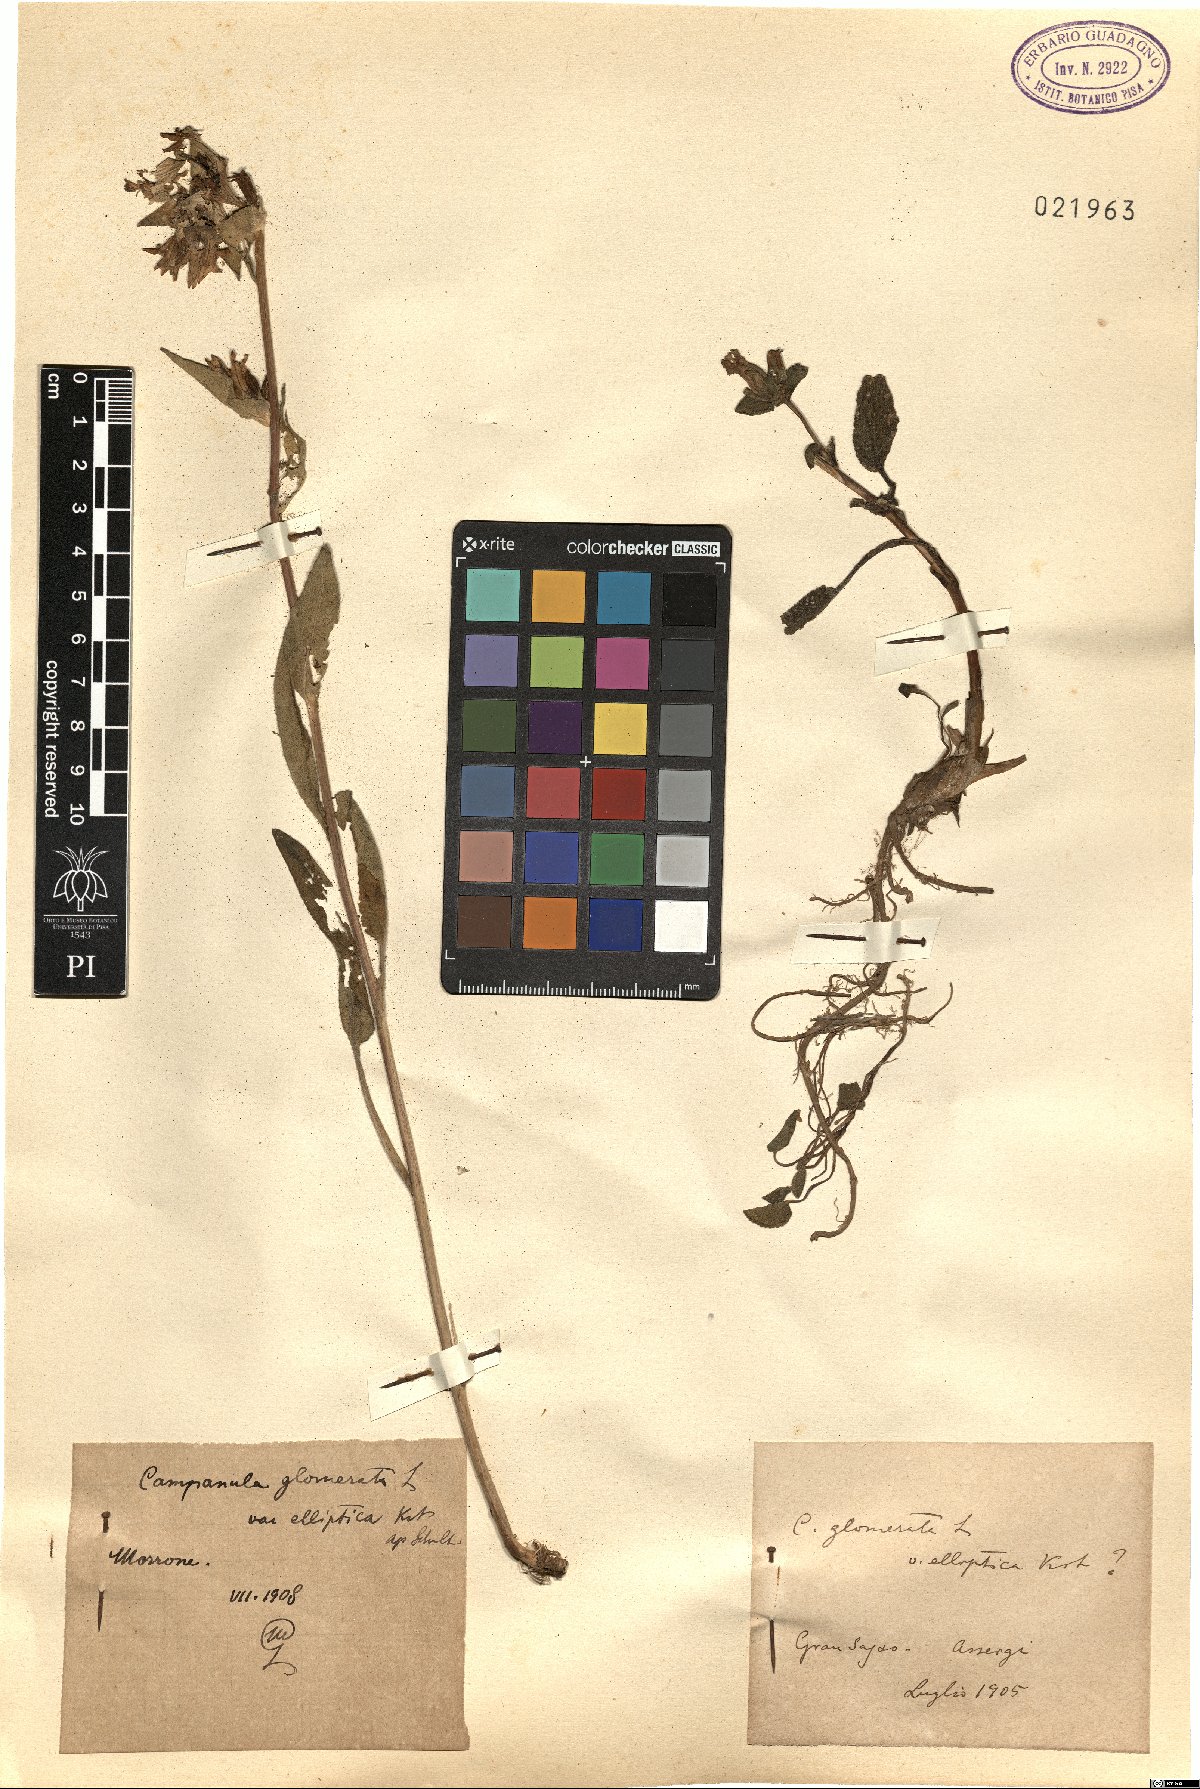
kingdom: Plantae
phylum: Tracheophyta
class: Magnoliopsida
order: Asterales
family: Campanulaceae
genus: Campanula
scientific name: Campanula glomerata
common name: Clustered bellflower
